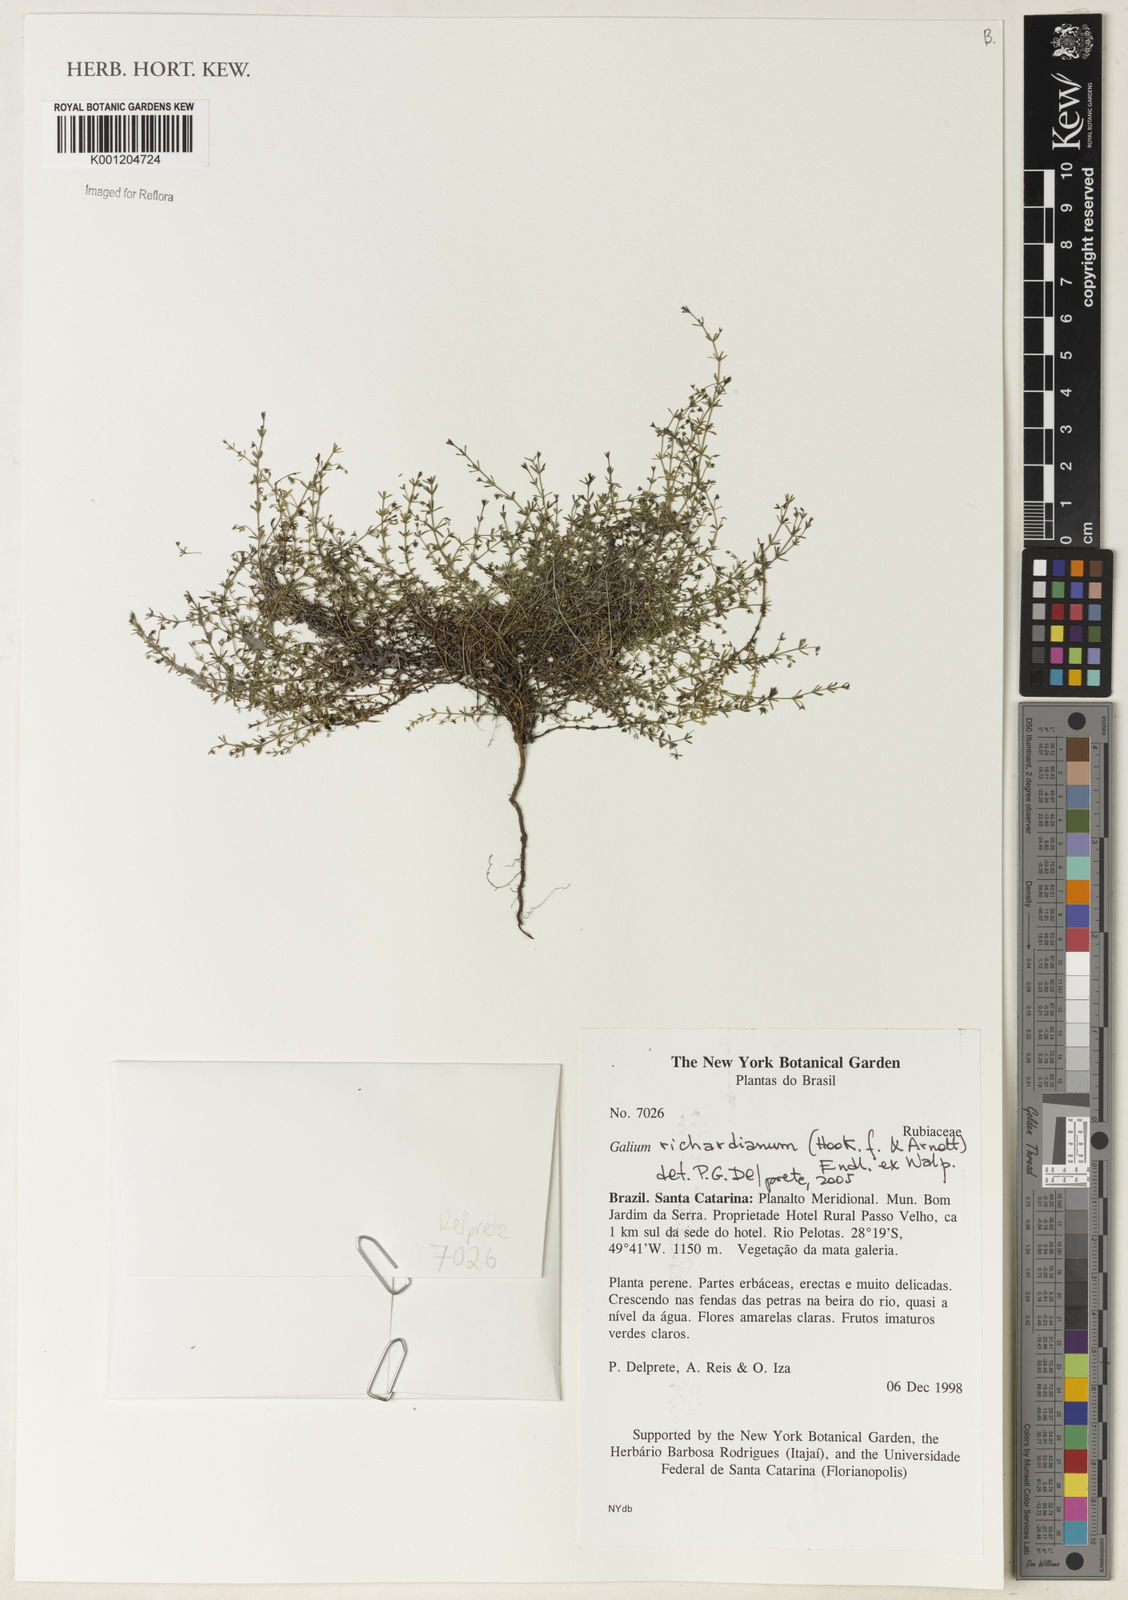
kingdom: Plantae
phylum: Tracheophyta
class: Magnoliopsida
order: Gentianales
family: Rubiaceae
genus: Galium
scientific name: Galium richardianum
